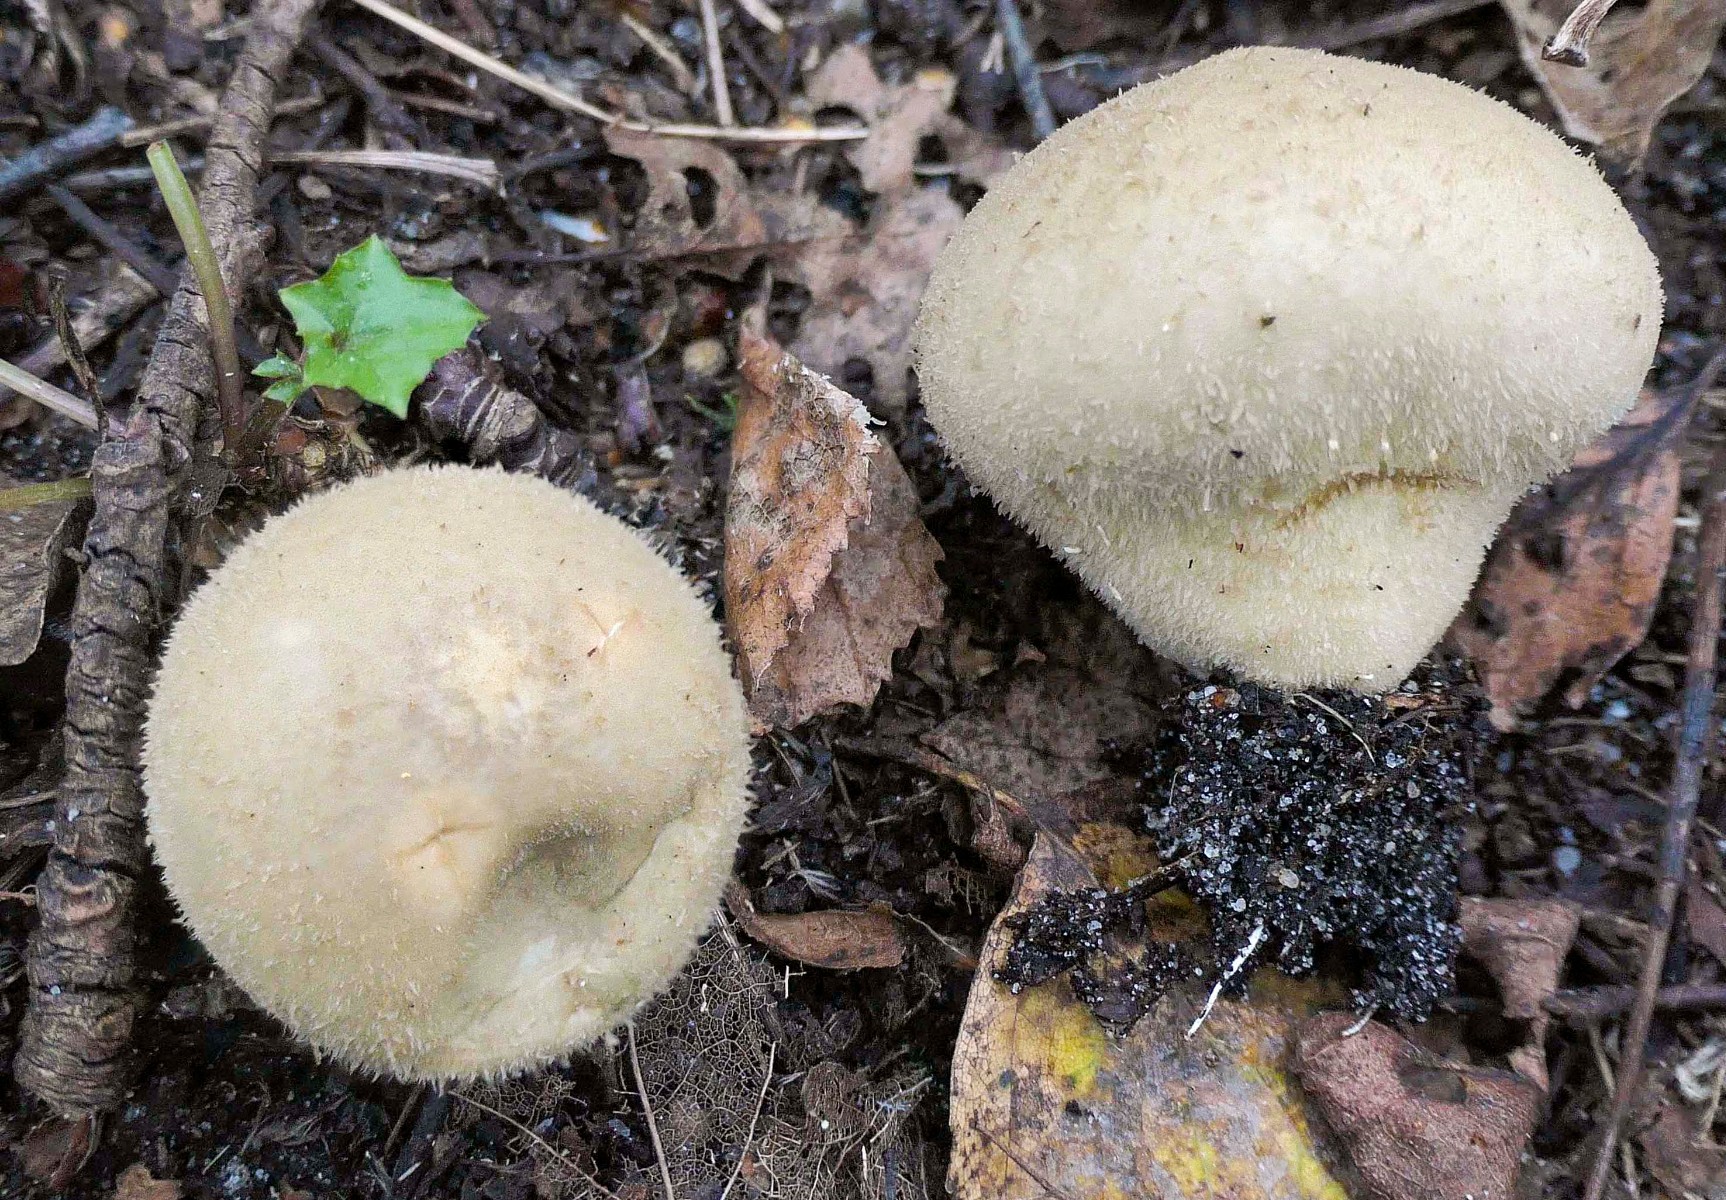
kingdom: Fungi
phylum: Basidiomycota
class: Agaricomycetes
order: Agaricales
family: Agaricaceae
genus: Lycoperdon
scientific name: Lycoperdon
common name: støvbold
